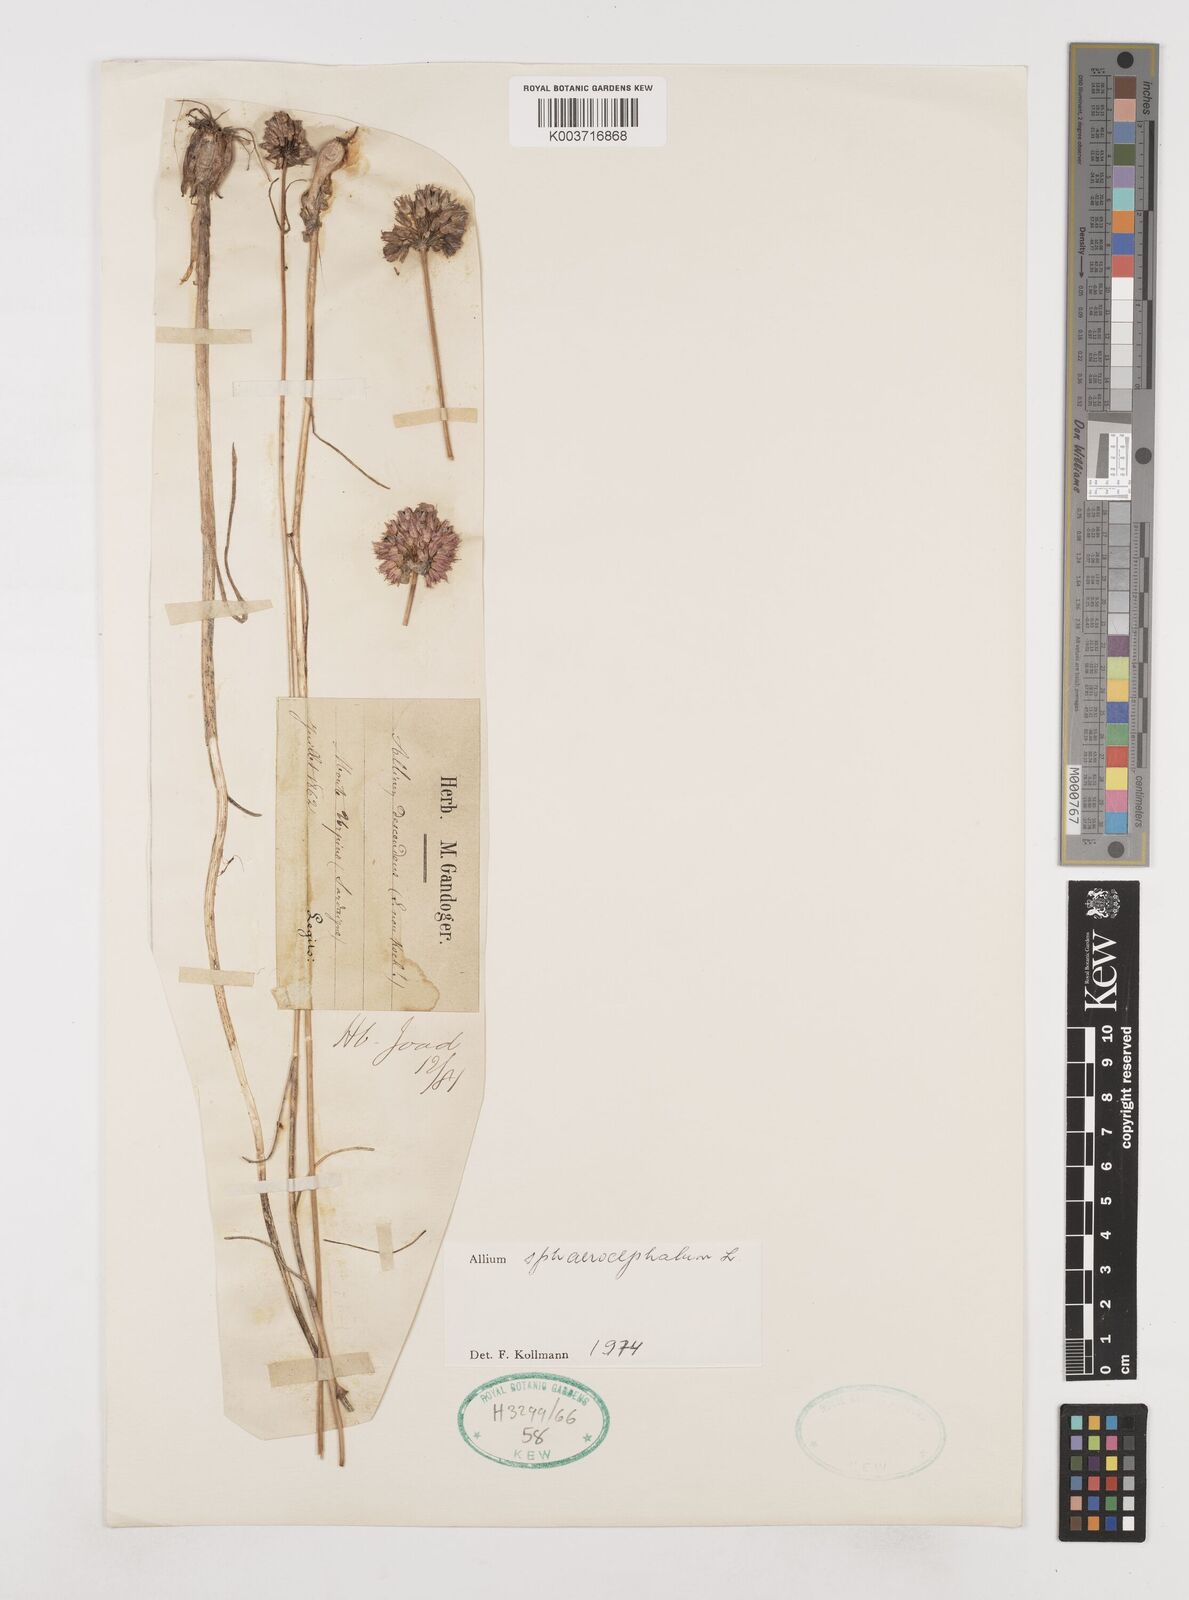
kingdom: Plantae
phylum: Tracheophyta
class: Liliopsida
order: Asparagales
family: Amaryllidaceae
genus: Allium
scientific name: Allium sphaerocephalon
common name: Round-headed leek
